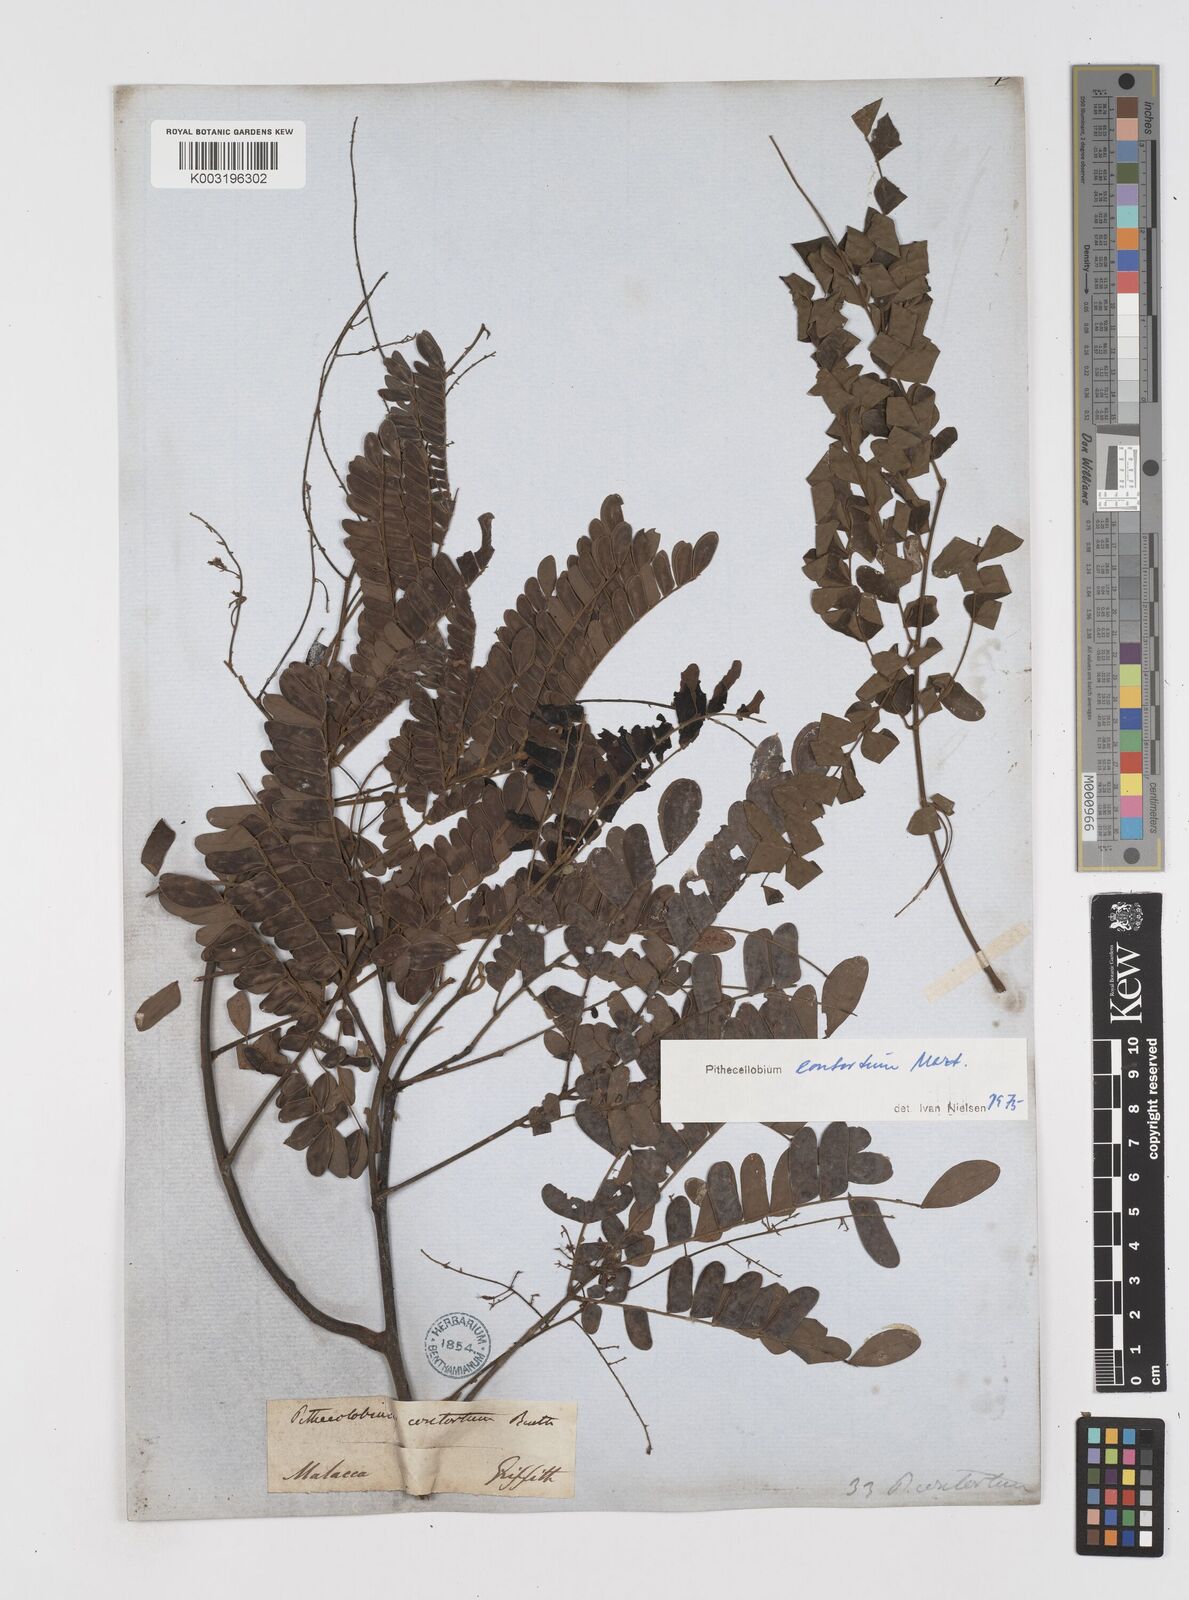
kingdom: Plantae
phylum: Tracheophyta
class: Magnoliopsida
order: Fabales
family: Fabaceae
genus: Archidendron
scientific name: Archidendron contortum
